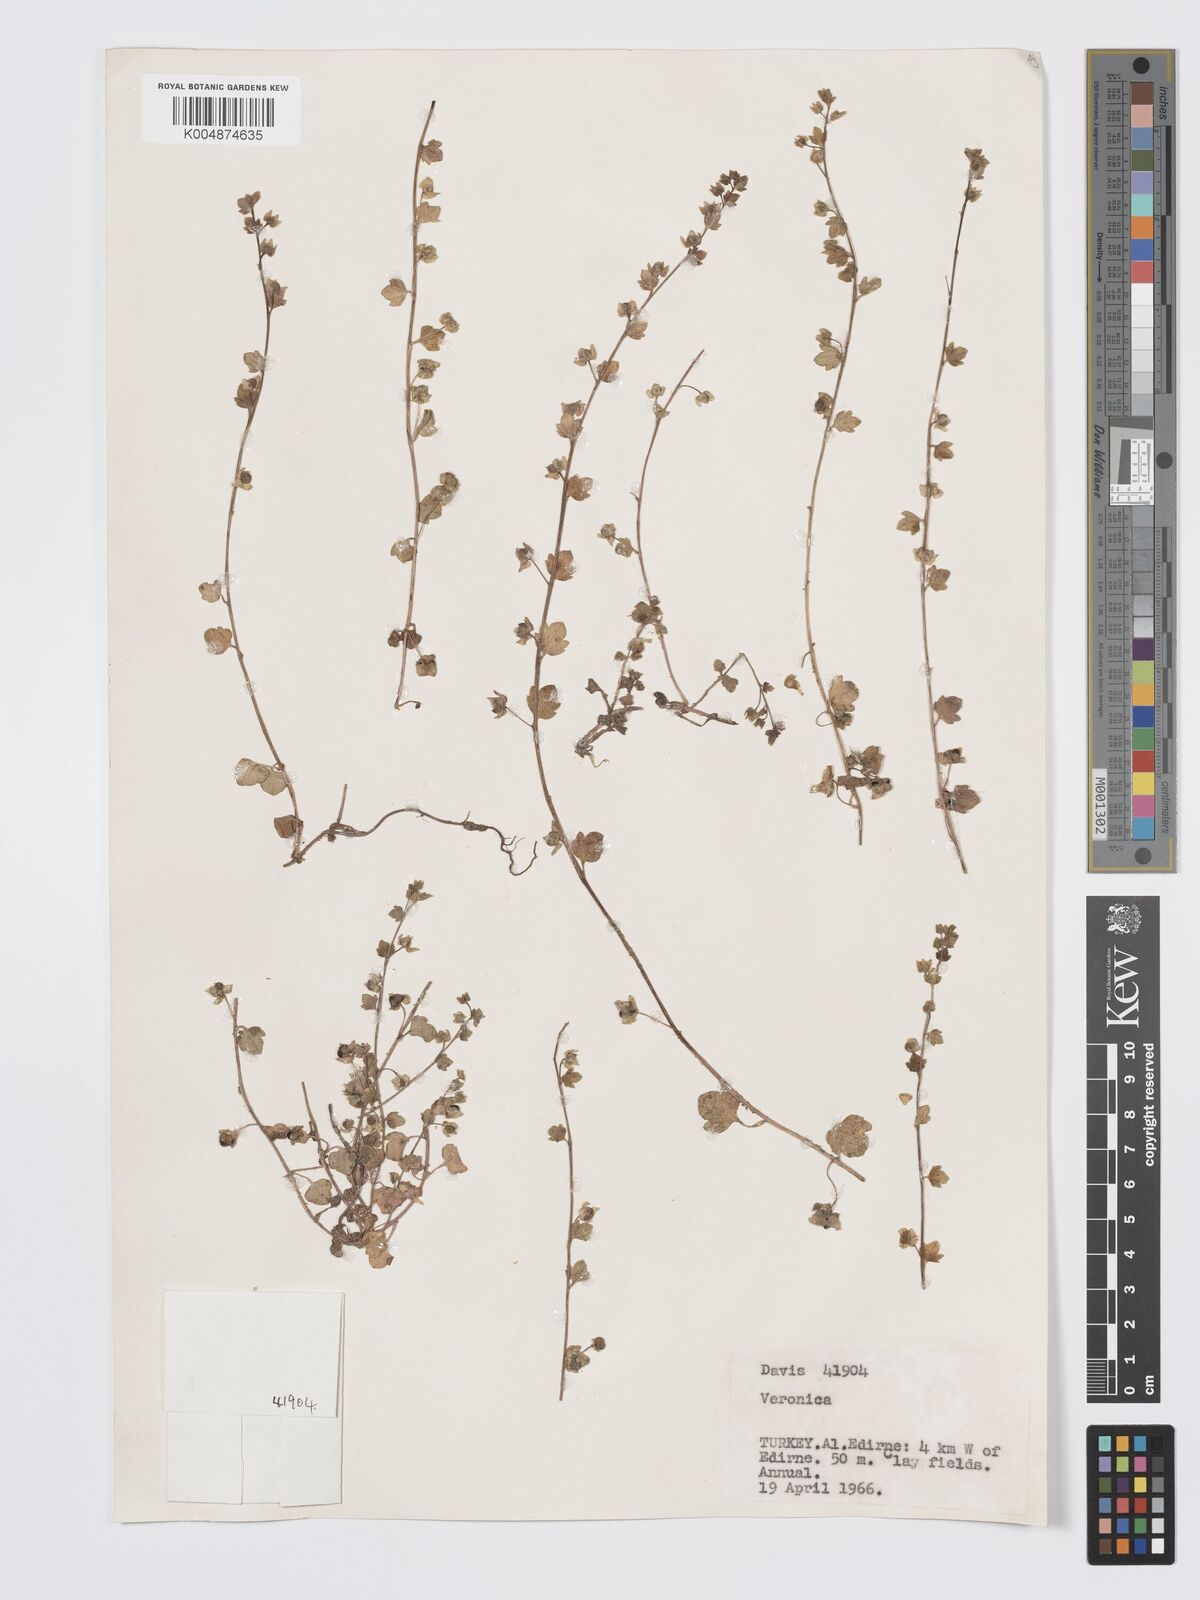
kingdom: Plantae
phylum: Tracheophyta
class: Magnoliopsida
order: Lamiales
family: Plantaginaceae
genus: Veronica
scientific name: Veronica
